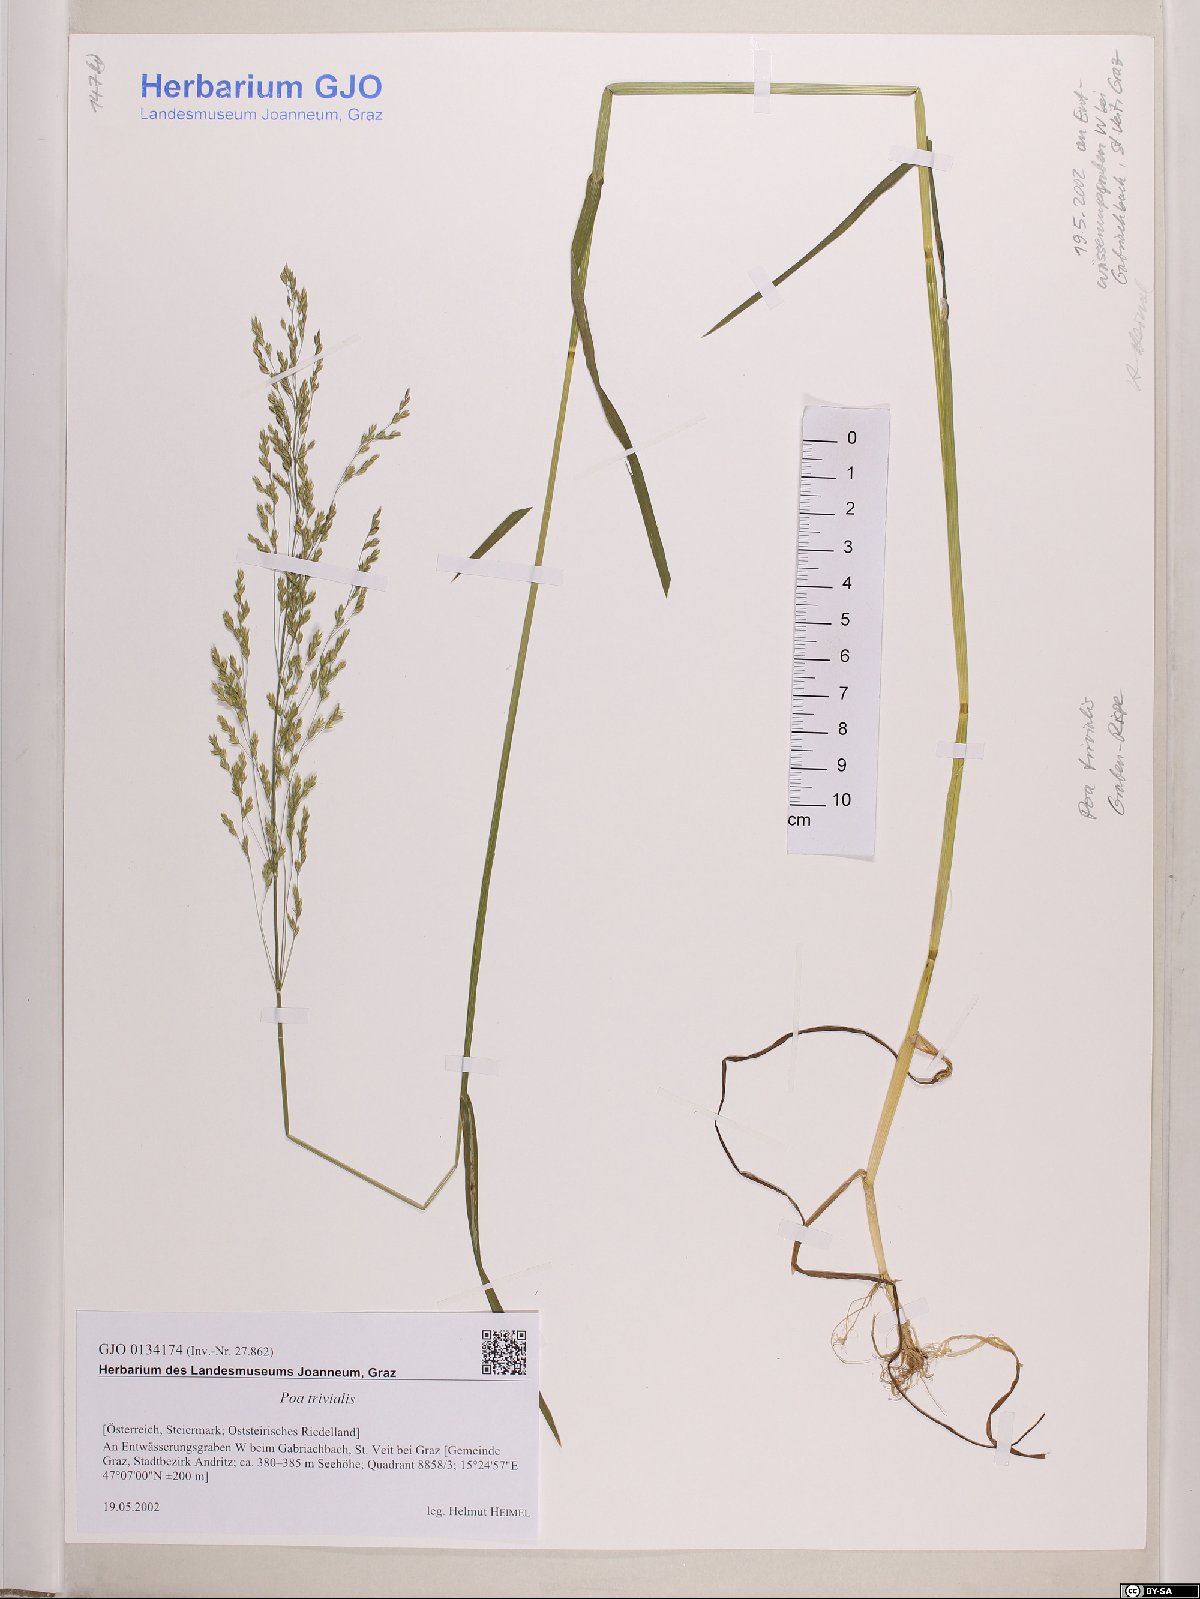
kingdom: Plantae
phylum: Tracheophyta
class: Liliopsida
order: Poales
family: Poaceae
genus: Poa
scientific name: Poa trivialis
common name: Rough bluegrass
